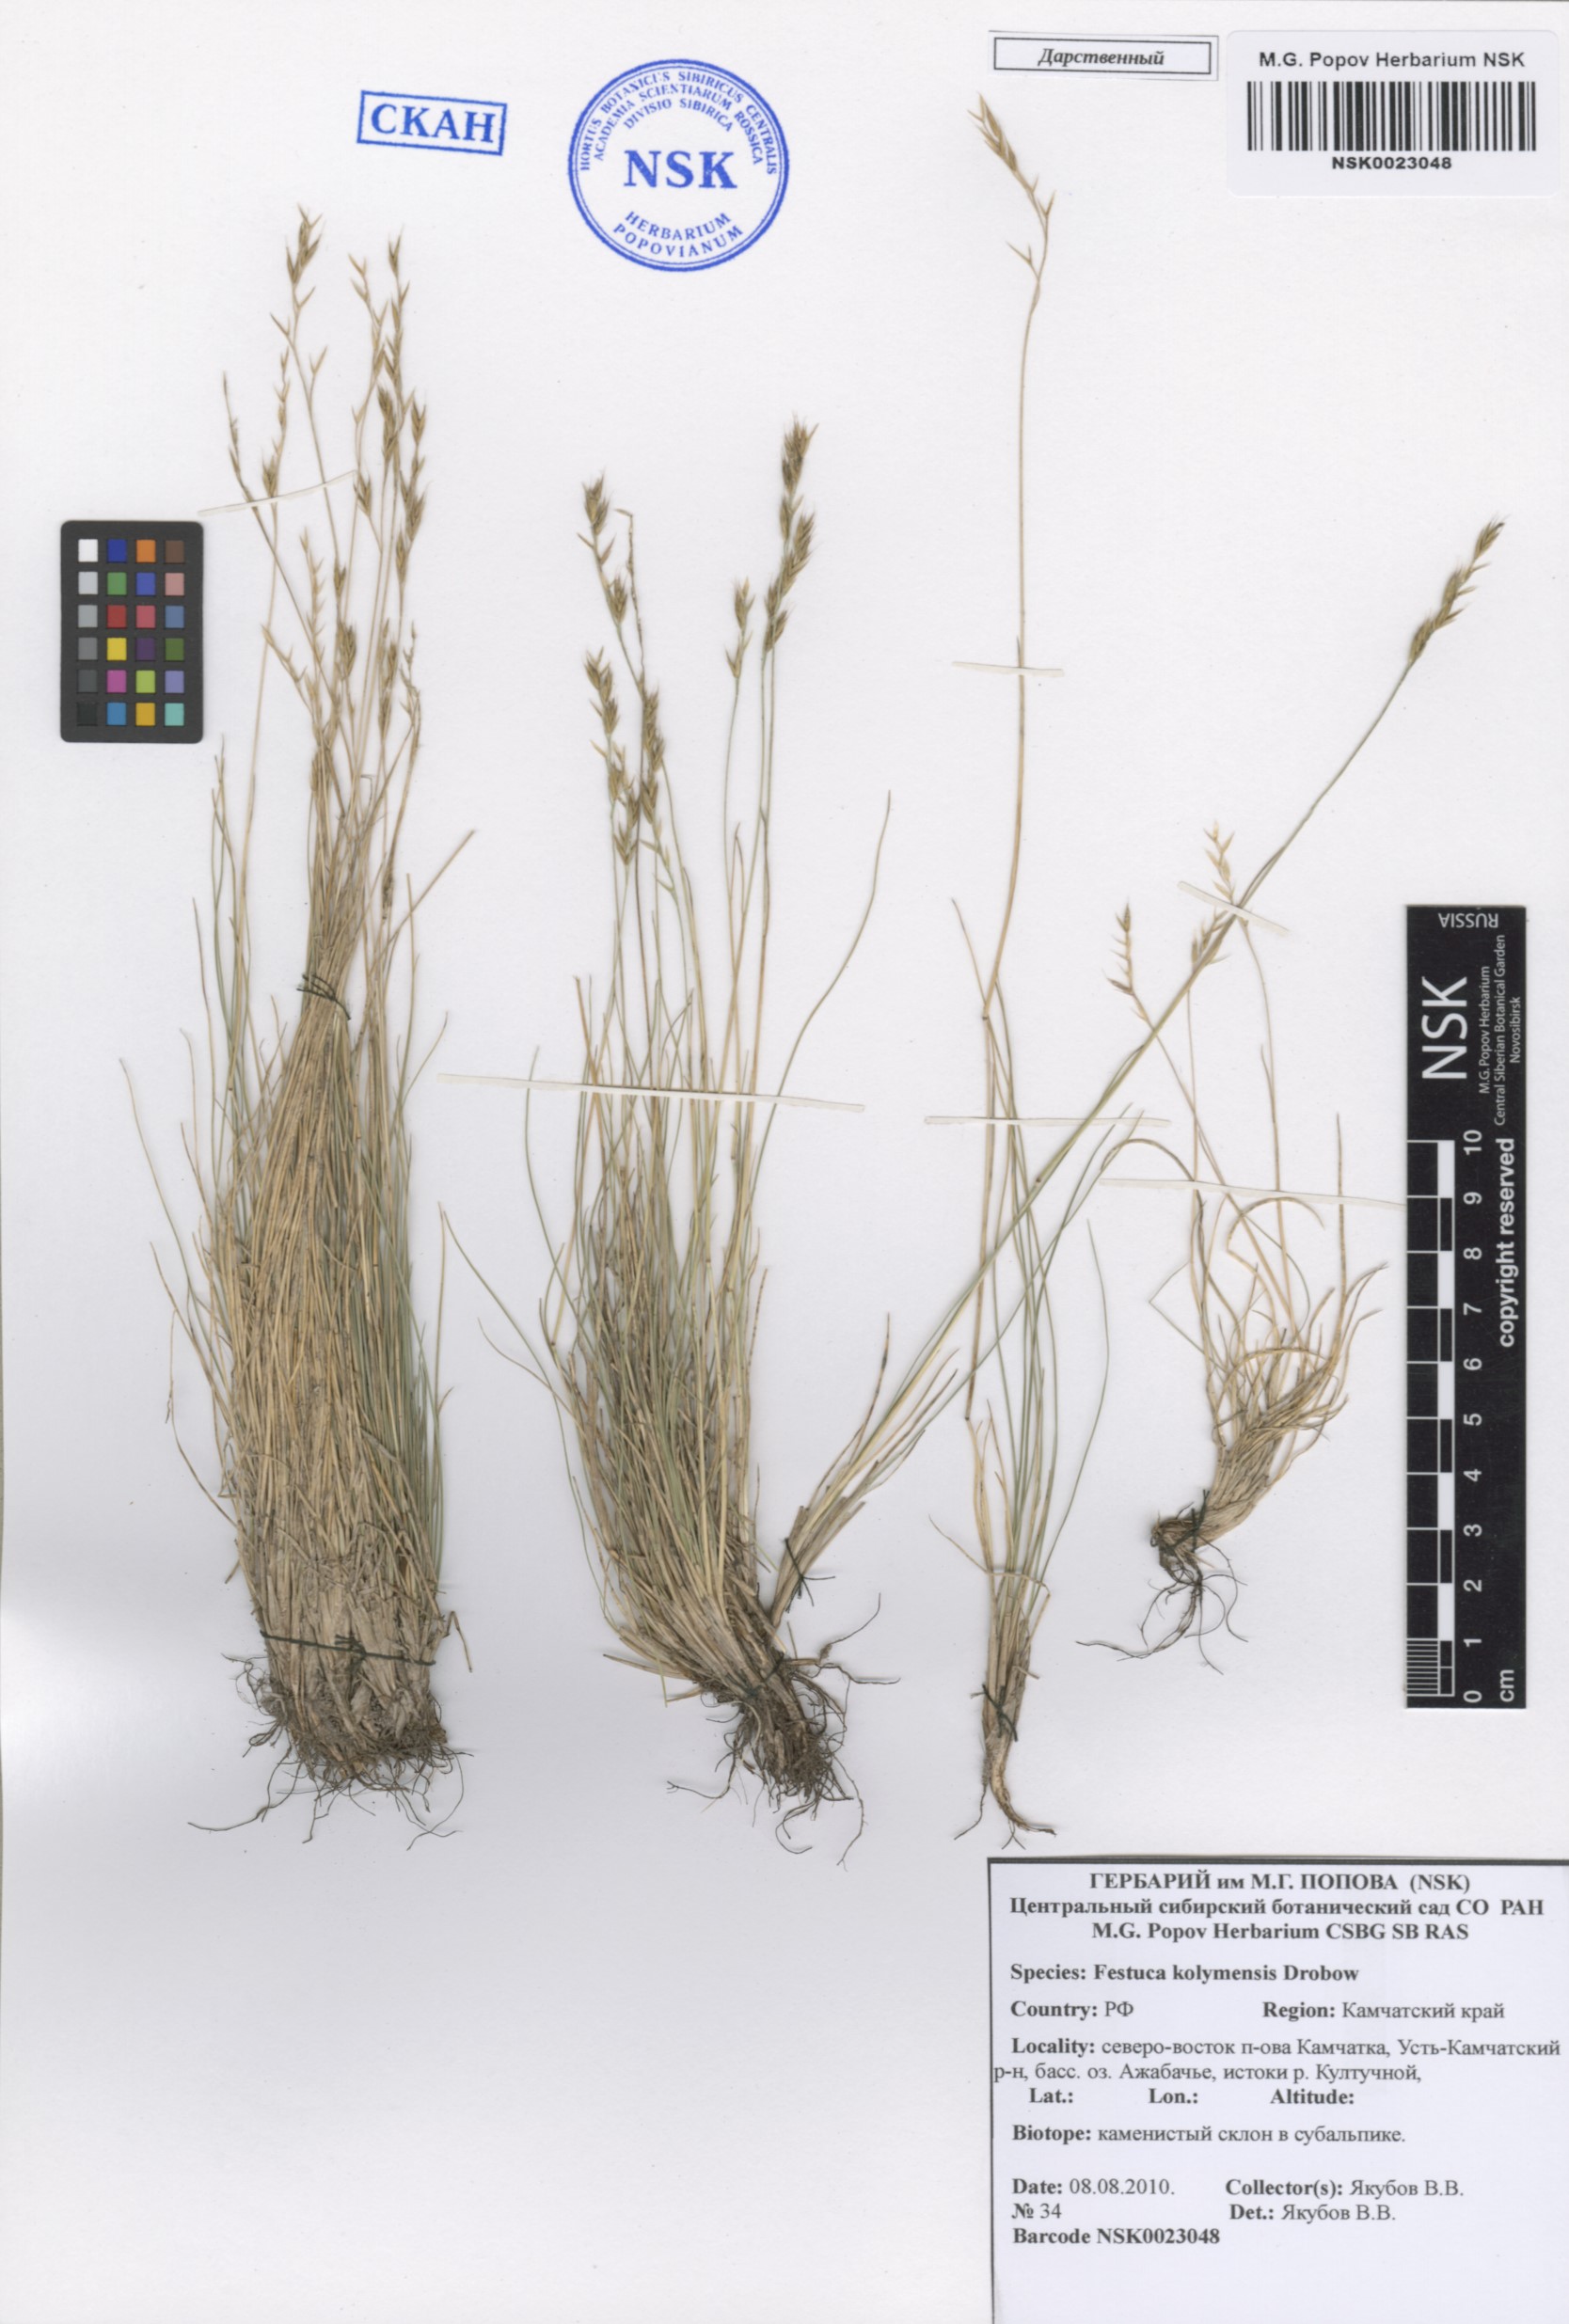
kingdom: Plantae
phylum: Tracheophyta
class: Liliopsida
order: Poales
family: Poaceae
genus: Festuca
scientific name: Festuca kolymensis
